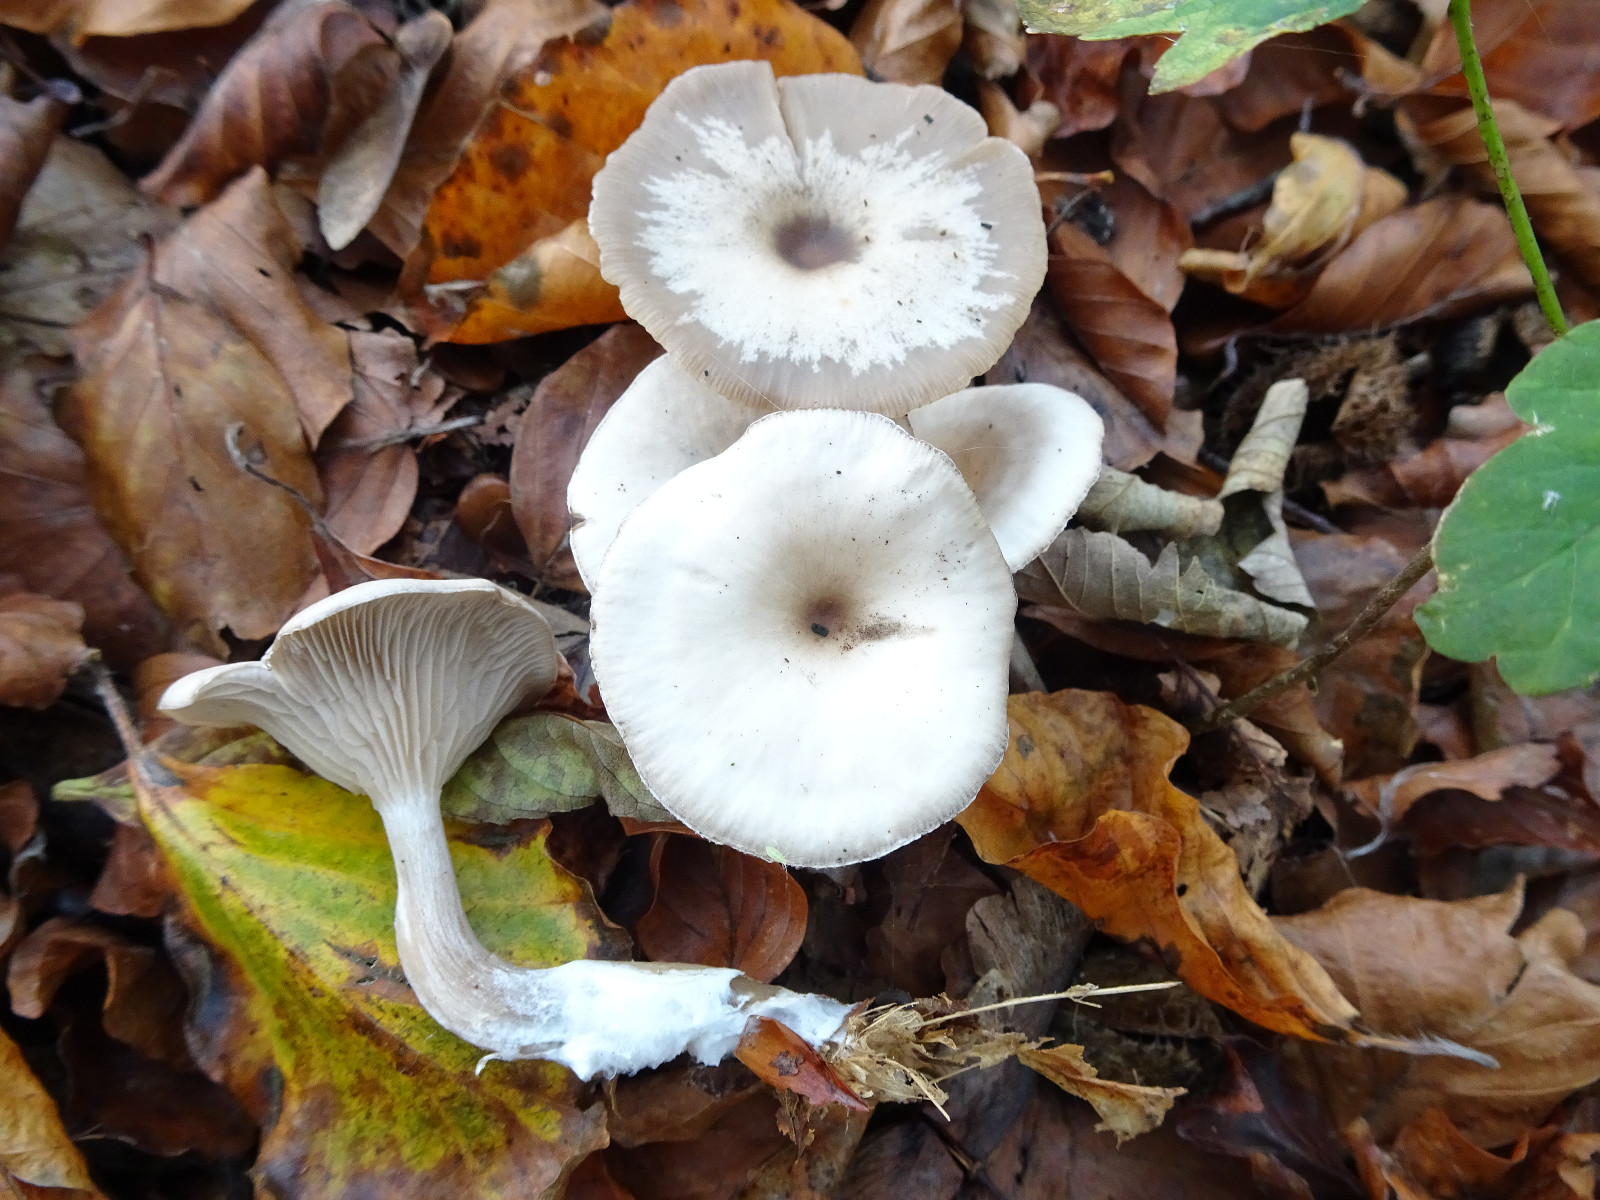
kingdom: Fungi
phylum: Basidiomycota
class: Agaricomycetes
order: Agaricales
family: Tricholomataceae
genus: Clitocybe
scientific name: Clitocybe
